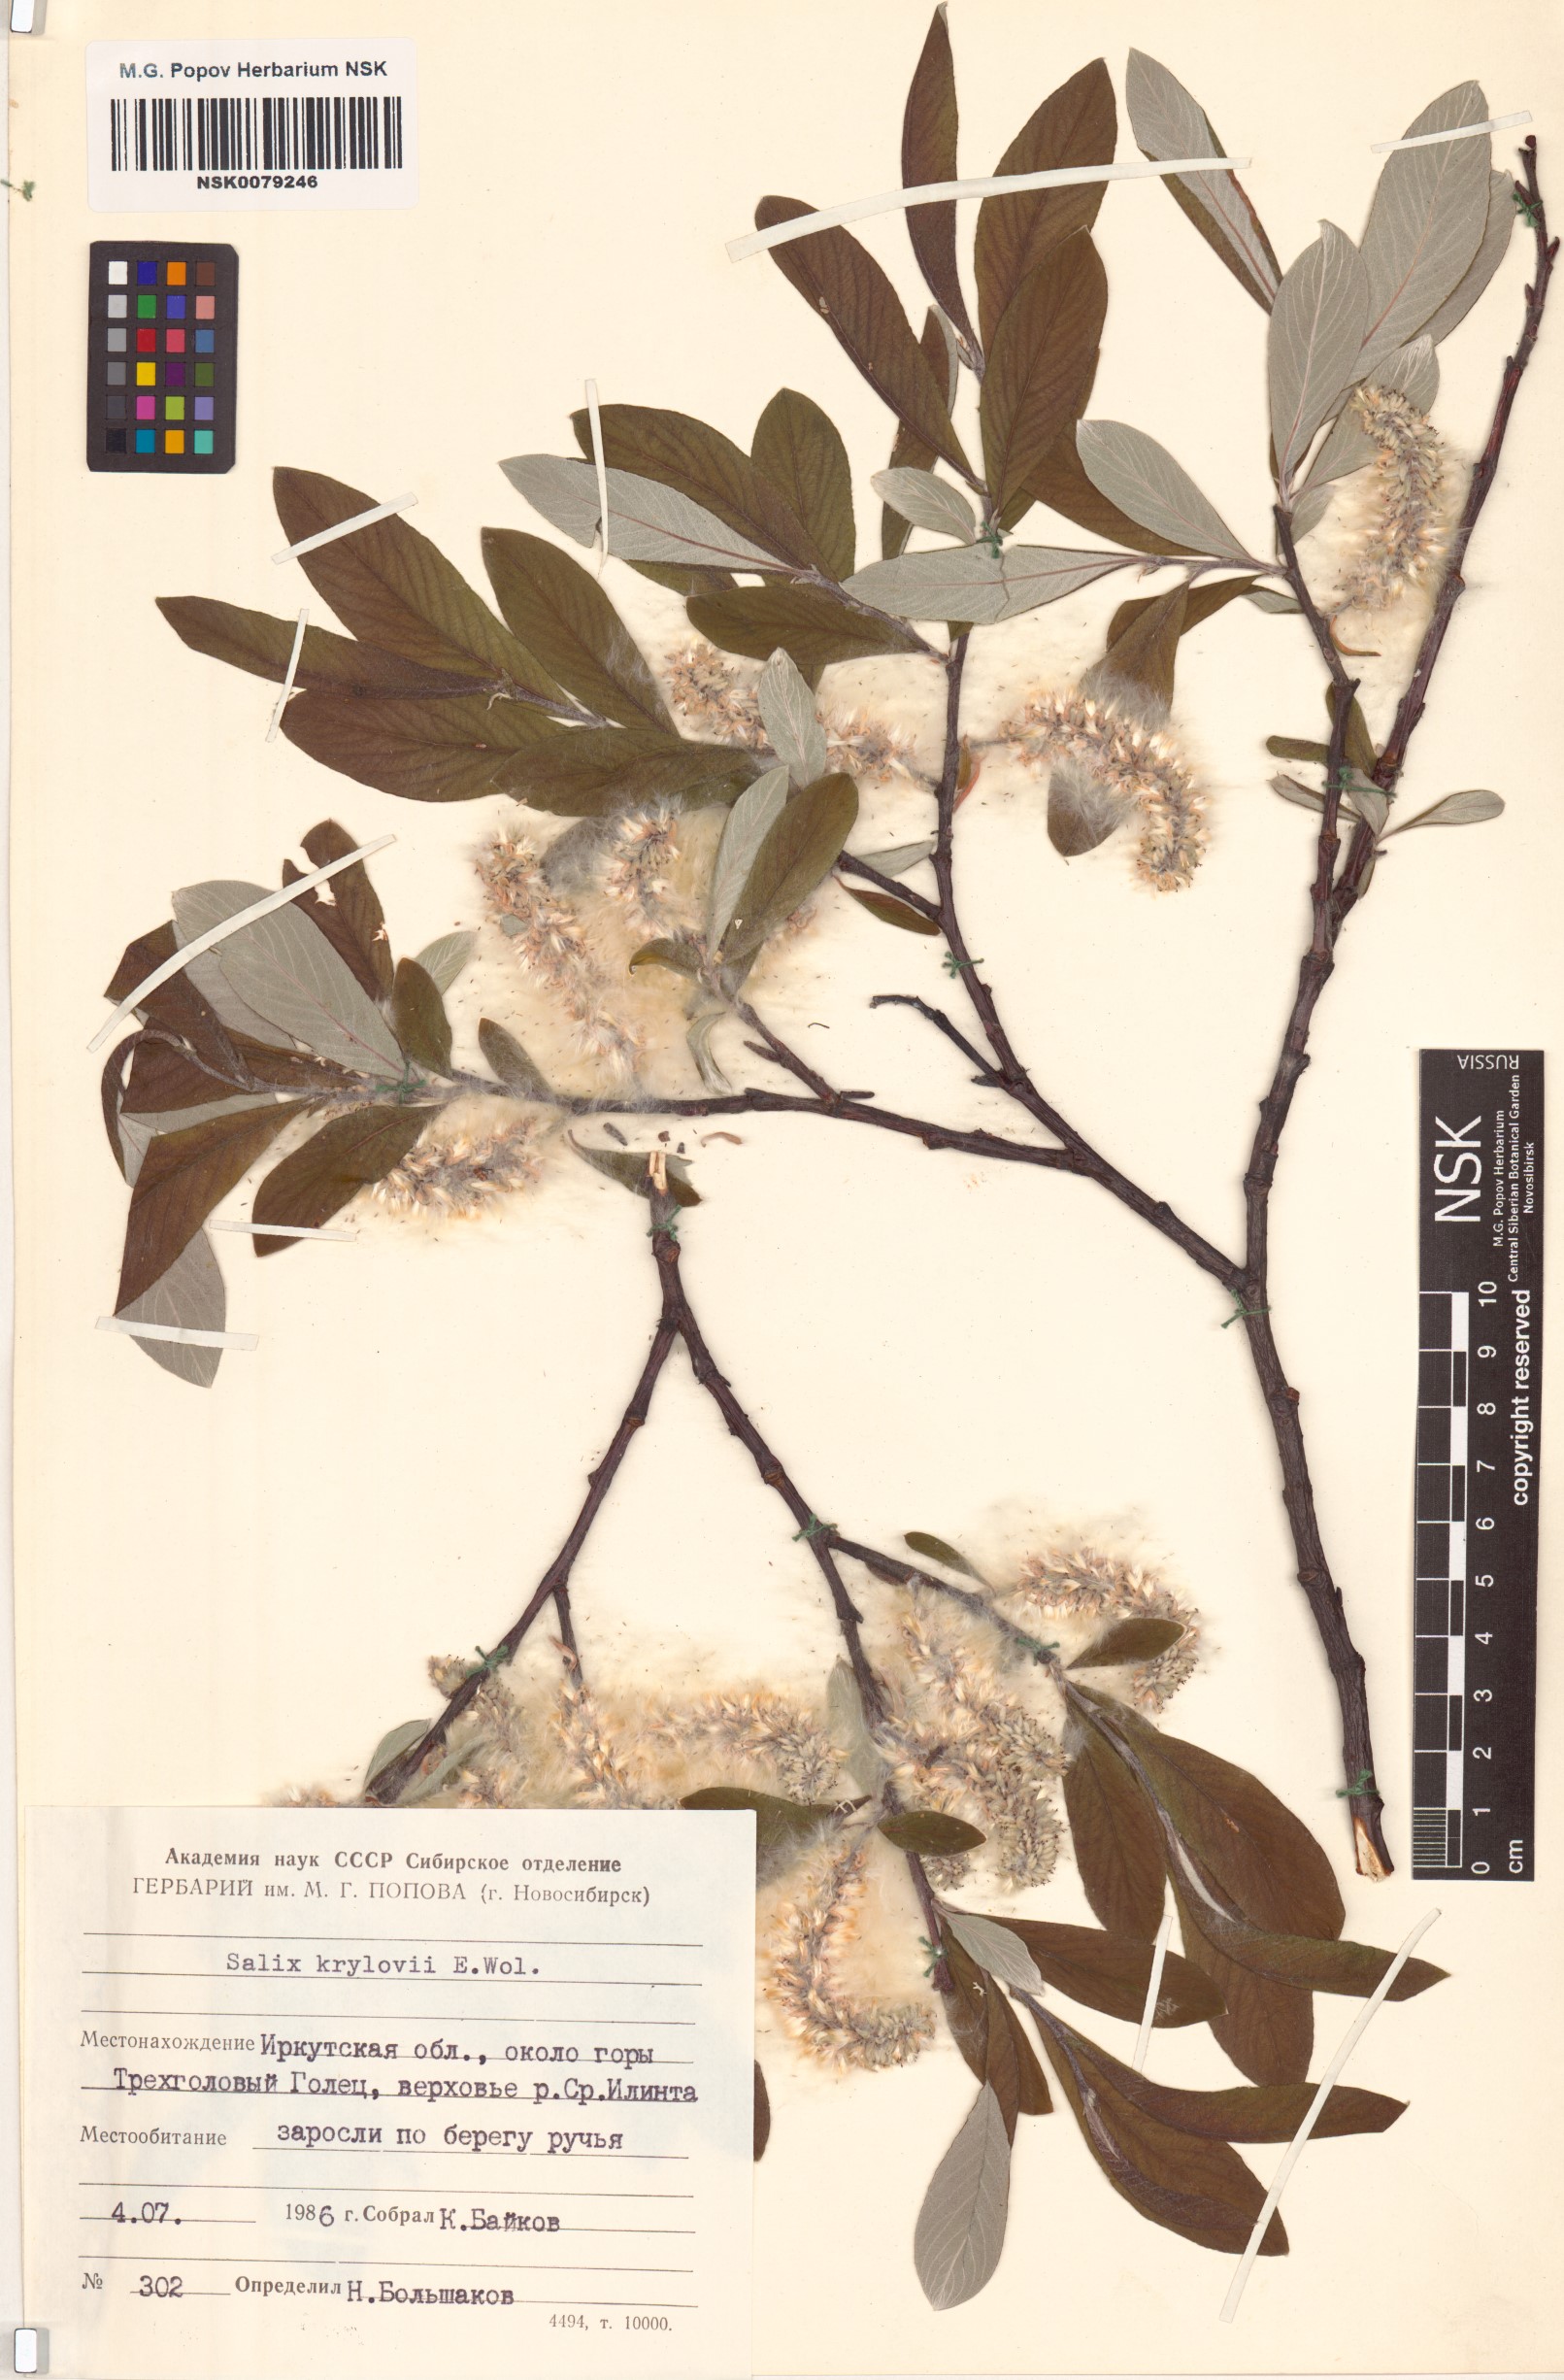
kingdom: Plantae
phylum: Tracheophyta
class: Magnoliopsida
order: Malpighiales
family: Salicaceae
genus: Salix
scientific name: Salix krylovii
